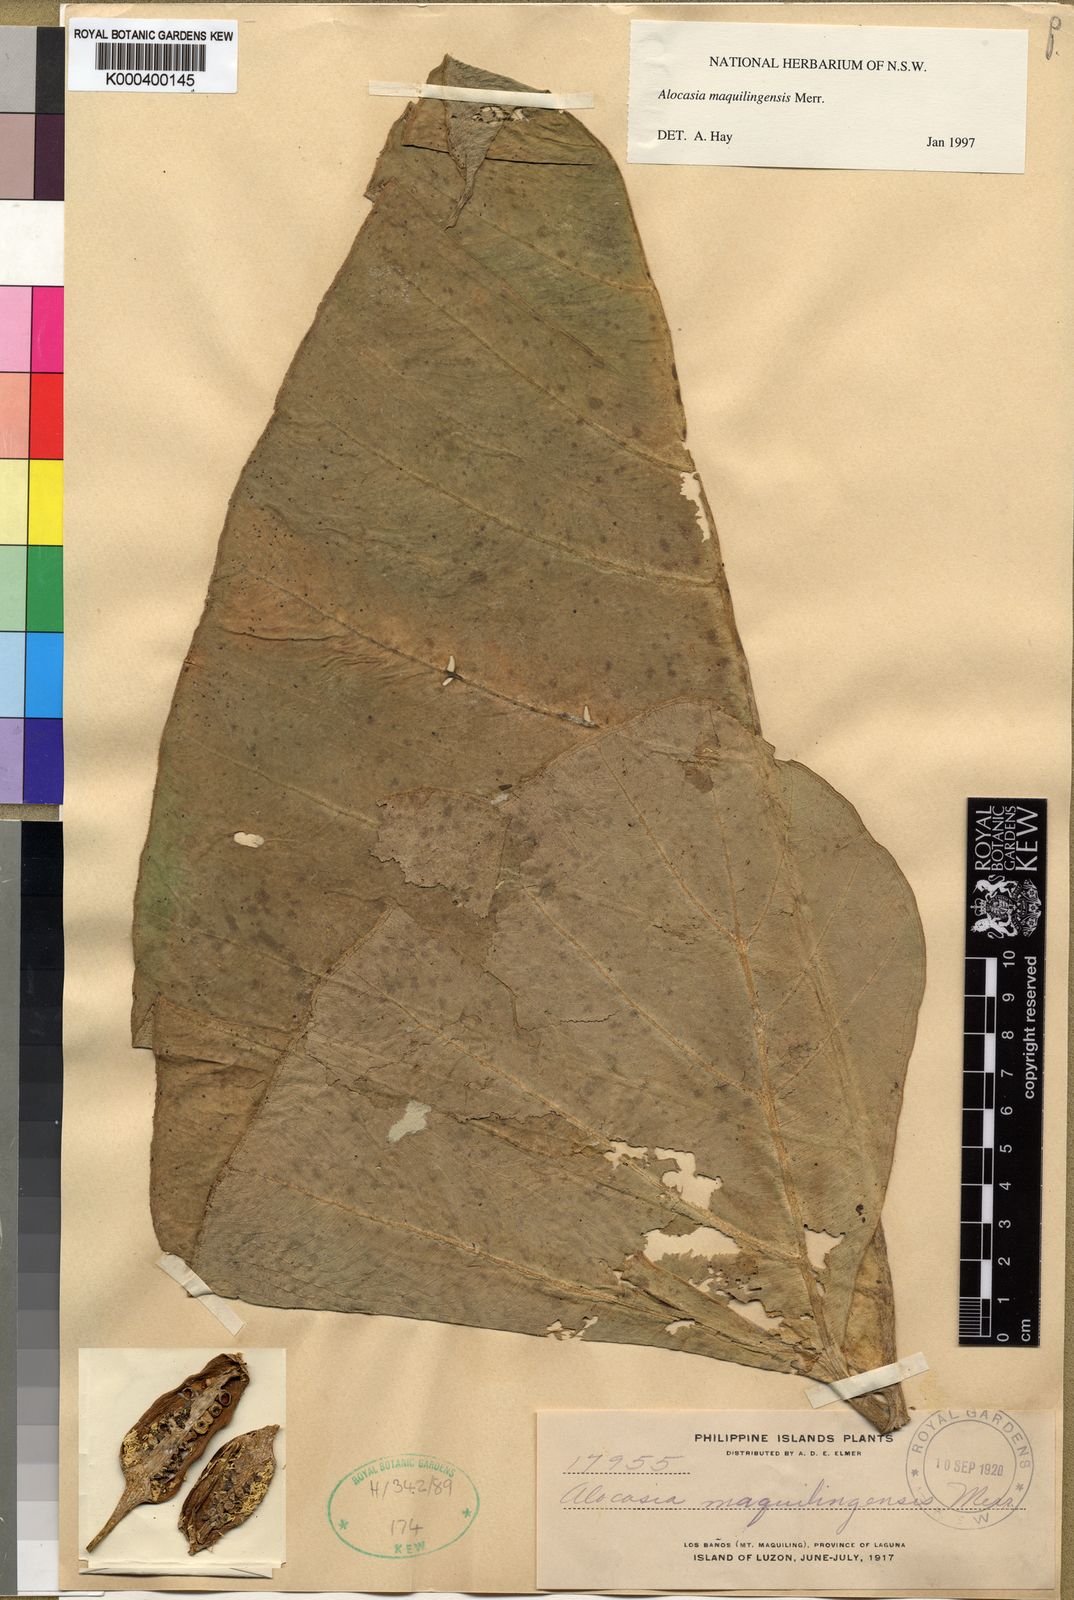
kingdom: Plantae
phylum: Tracheophyta
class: Liliopsida
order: Alismatales
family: Araceae
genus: Alocasia
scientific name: Alocasia maquilingensis
